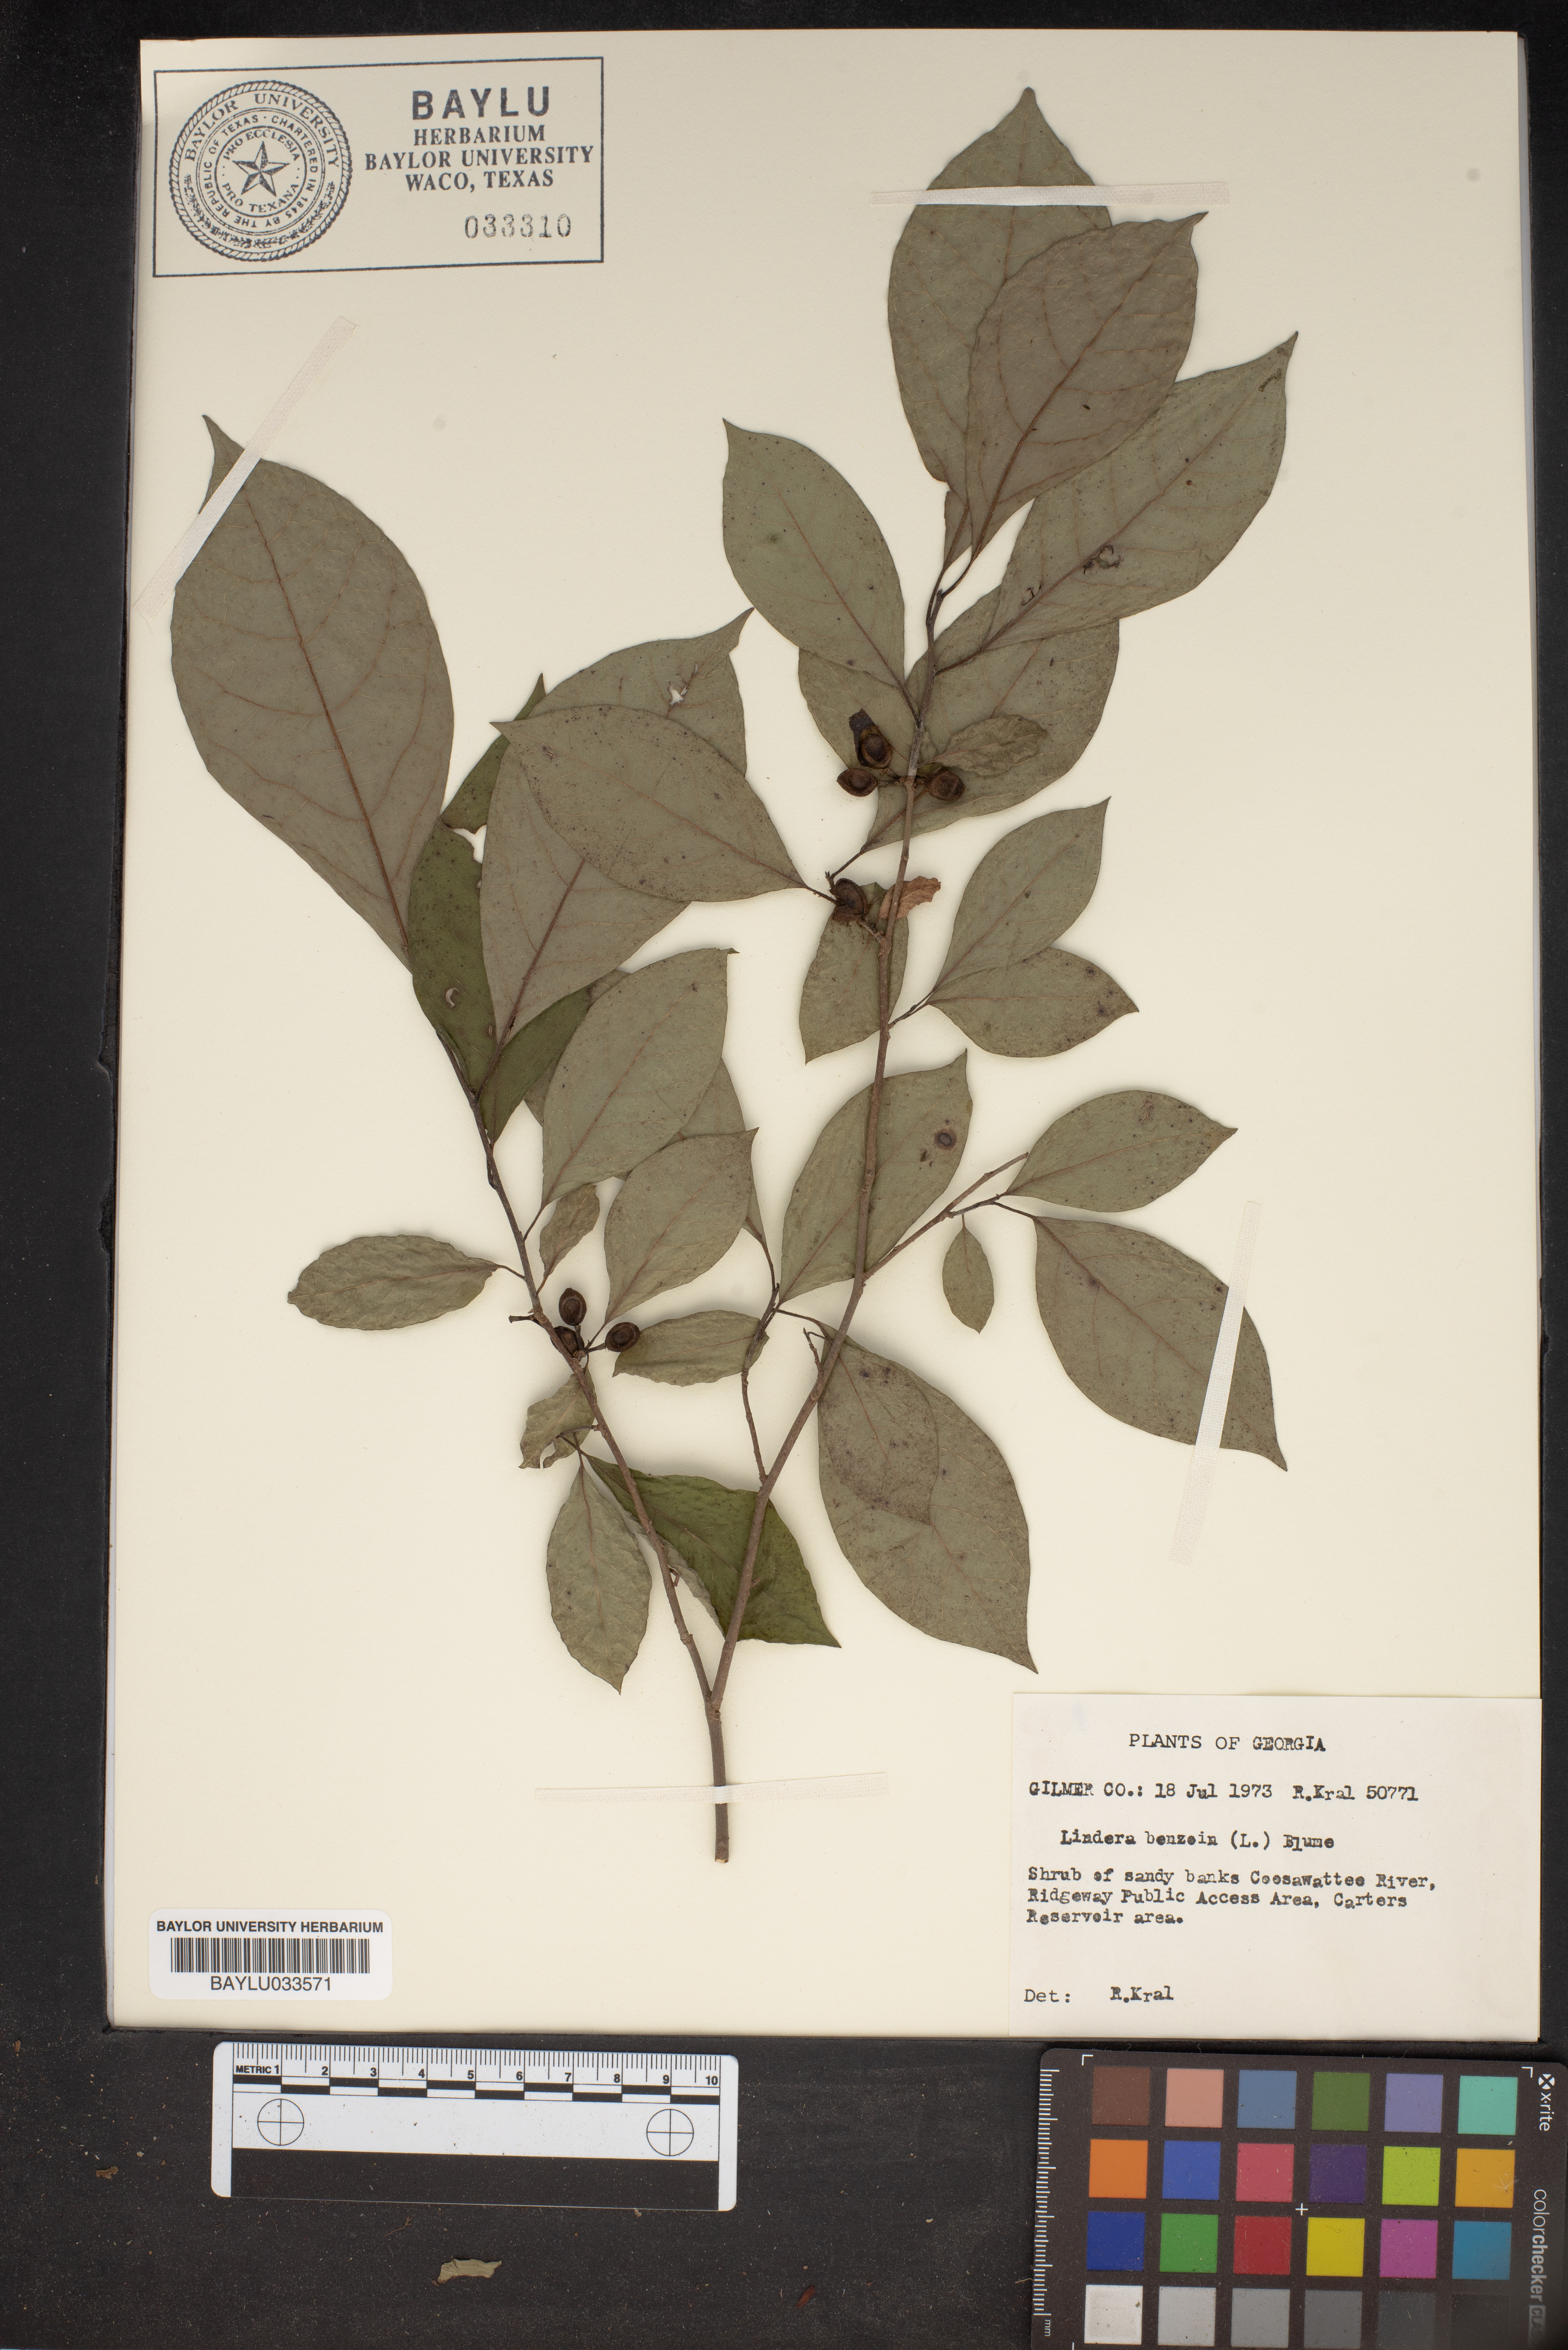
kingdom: Plantae
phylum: Tracheophyta
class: Magnoliopsida
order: Laurales
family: Lauraceae
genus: Lindera
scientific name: Lindera benzoin
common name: Spicebush
